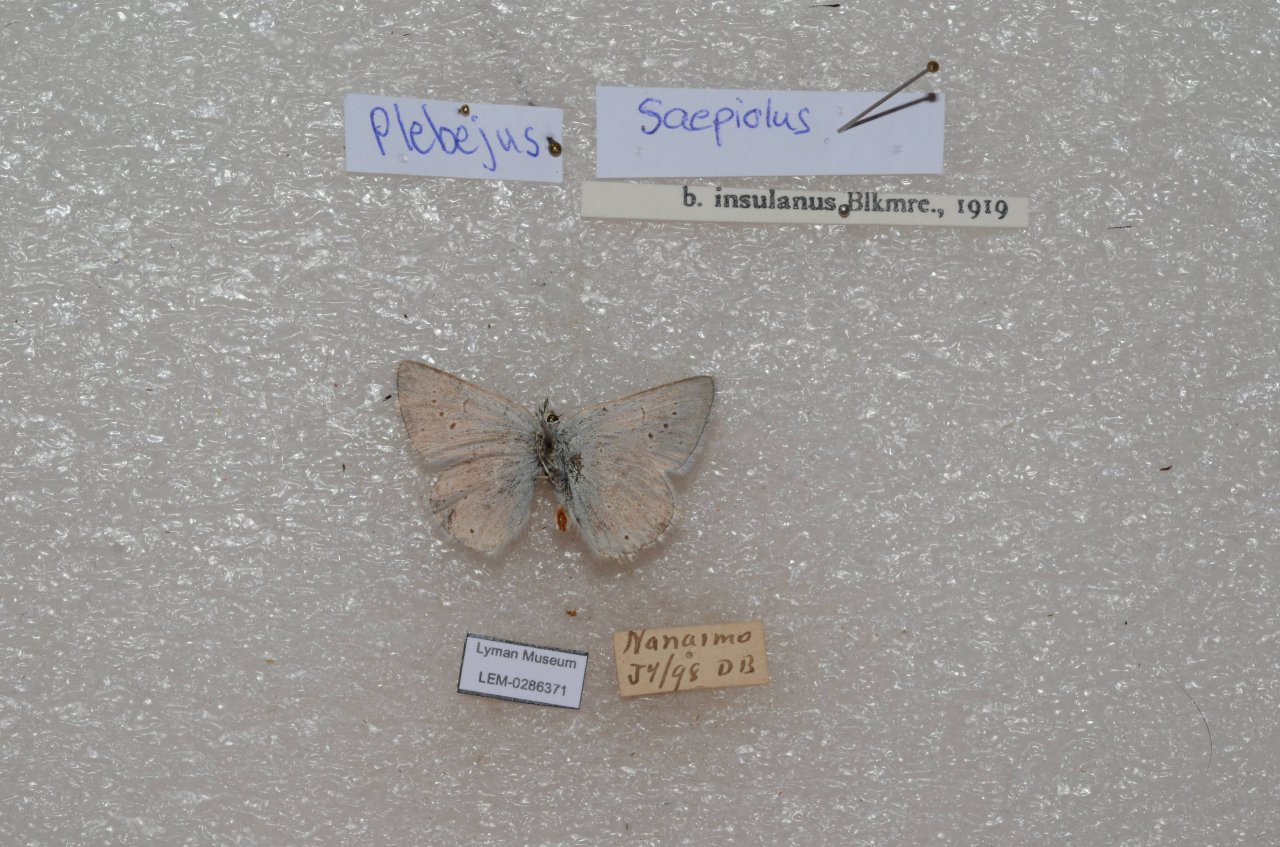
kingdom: Animalia
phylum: Arthropoda
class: Insecta
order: Lepidoptera
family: Lycaenidae
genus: Plebejus
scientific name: Plebejus saepiolus
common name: Greenish Blue
